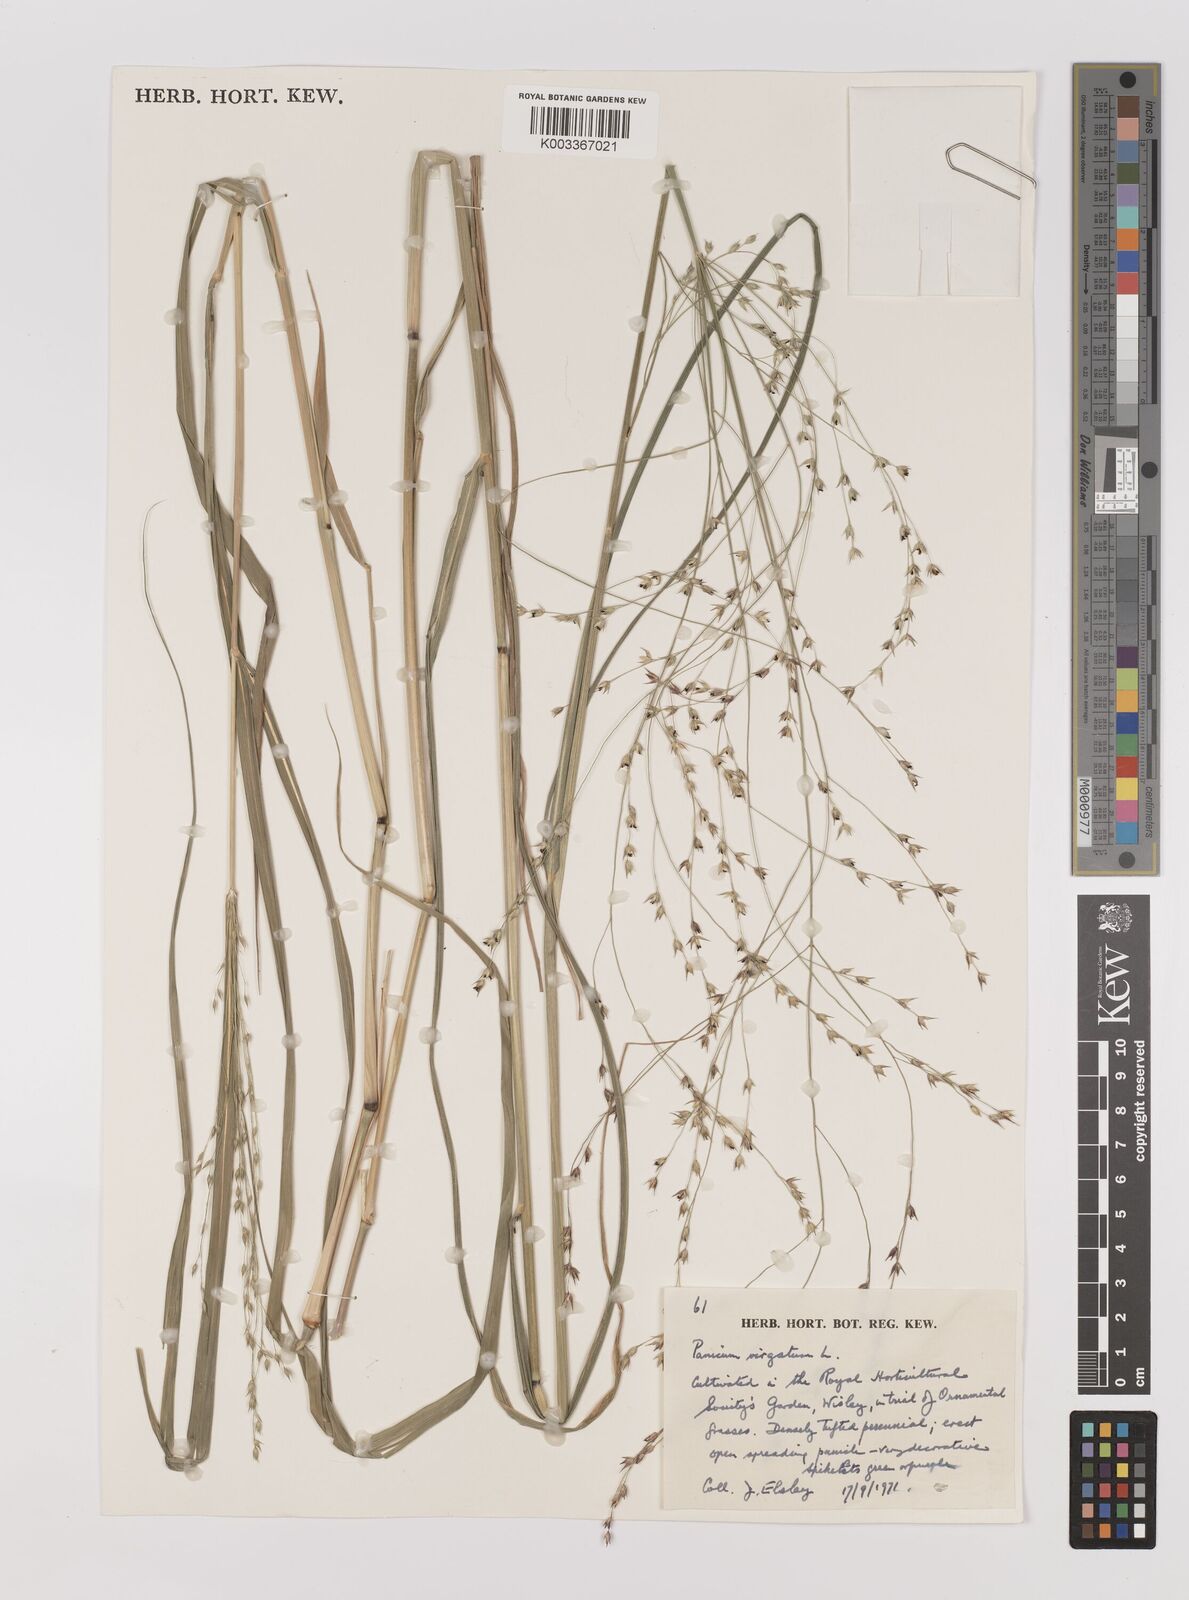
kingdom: Plantae
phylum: Tracheophyta
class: Liliopsida
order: Poales
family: Poaceae
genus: Panicum
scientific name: Panicum virgatum
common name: Switchgrass
